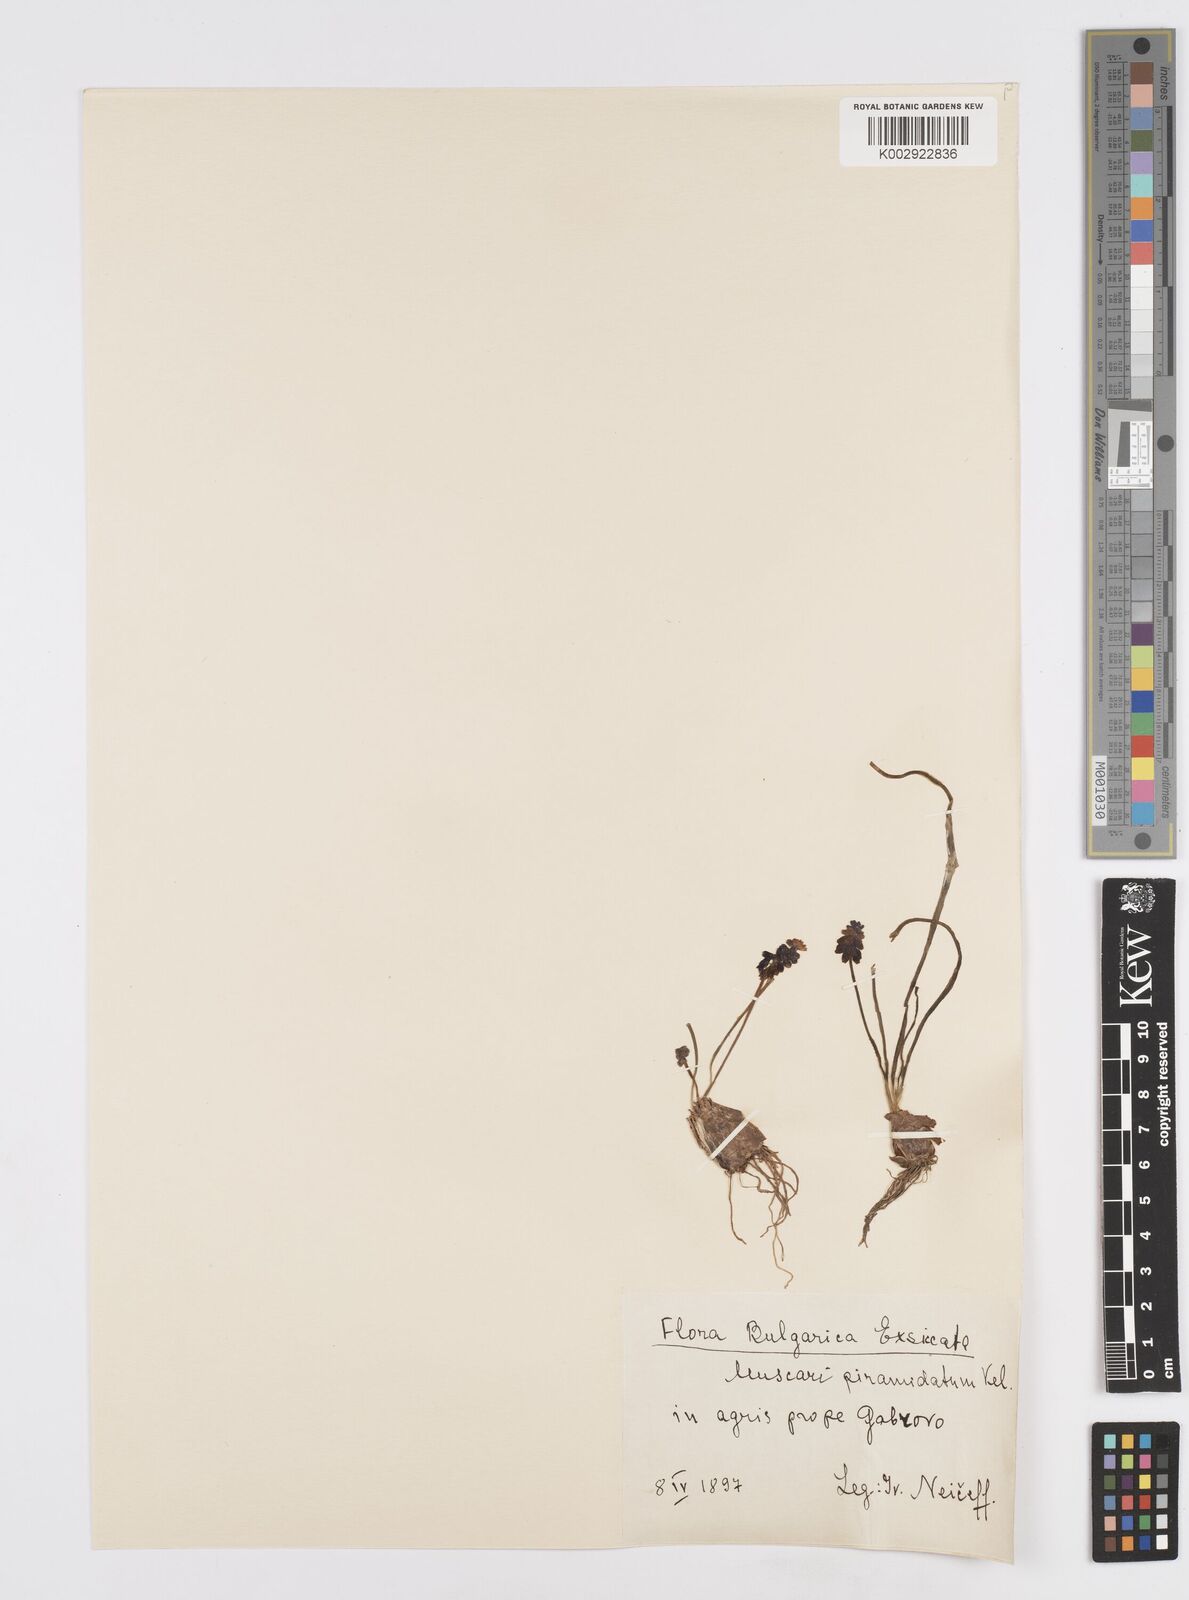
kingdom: Plantae
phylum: Tracheophyta
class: Liliopsida
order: Asparagales
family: Asparagaceae
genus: Muscari
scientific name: Muscari
